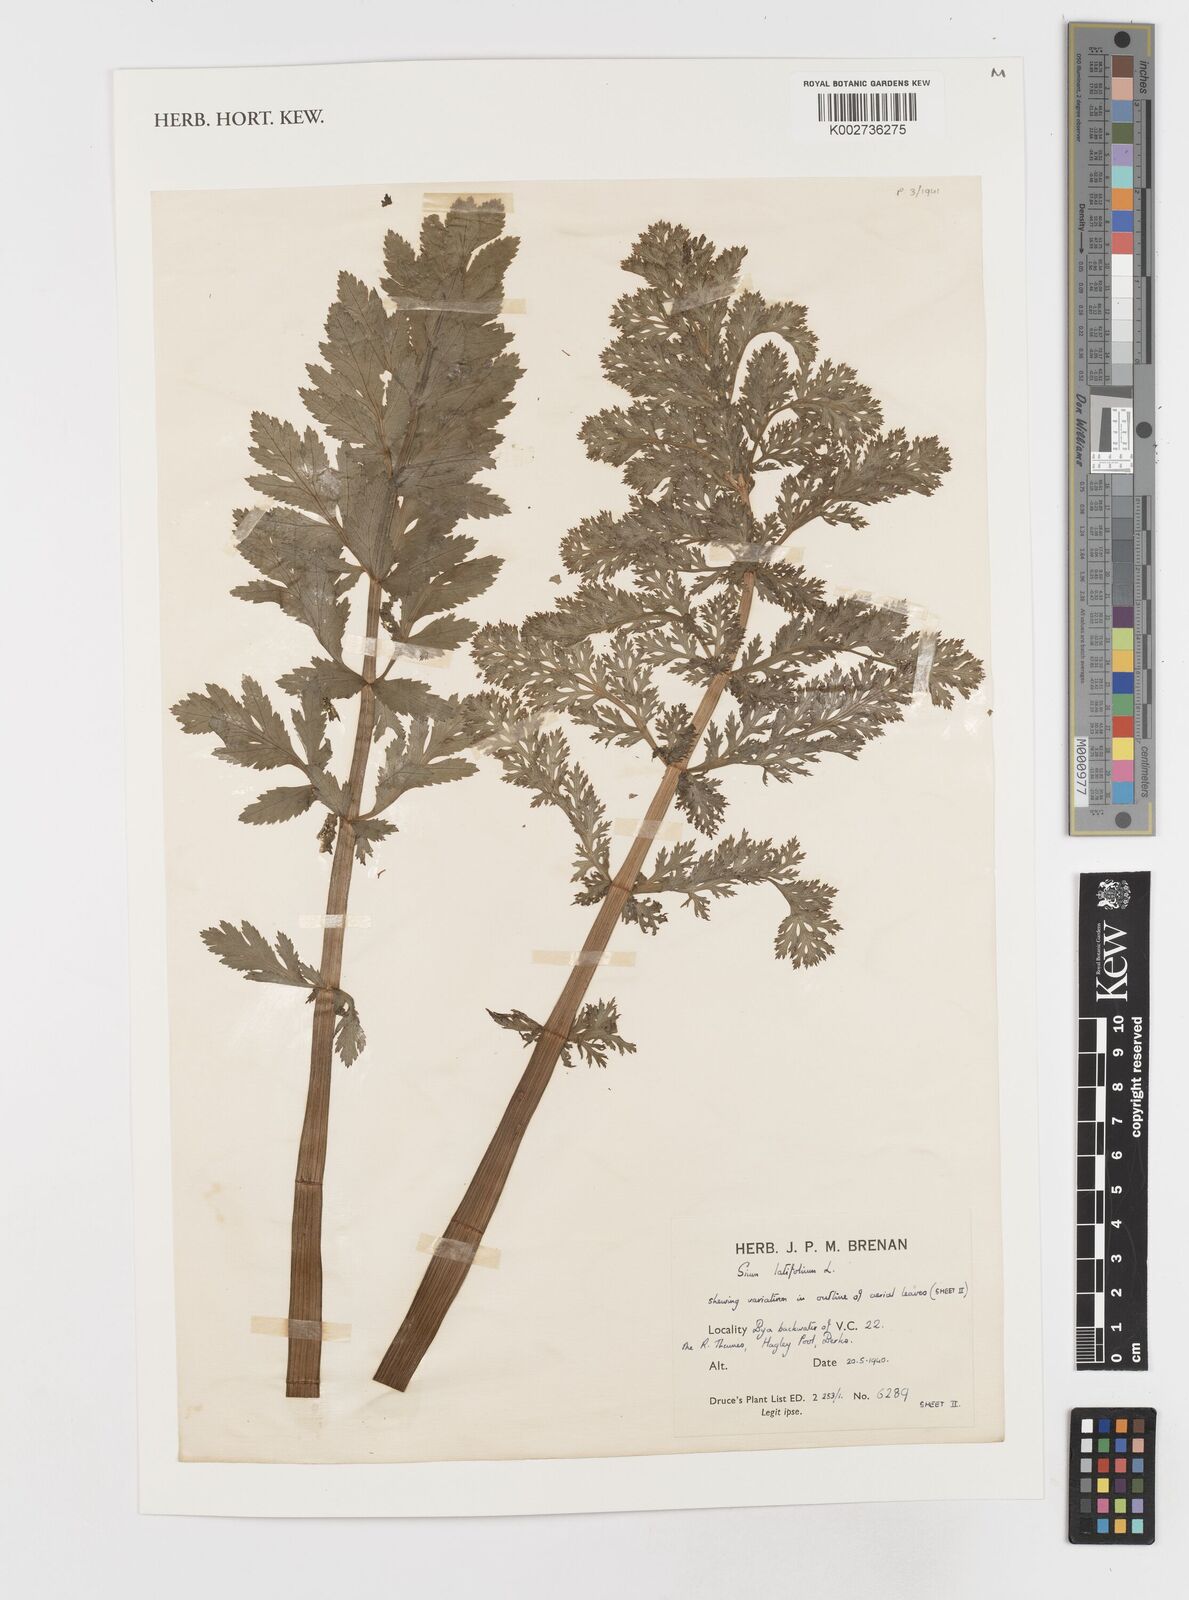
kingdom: Plantae
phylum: Tracheophyta
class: Magnoliopsida
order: Apiales
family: Apiaceae
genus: Sium
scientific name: Sium latifolium
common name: Greater water-parsnip
